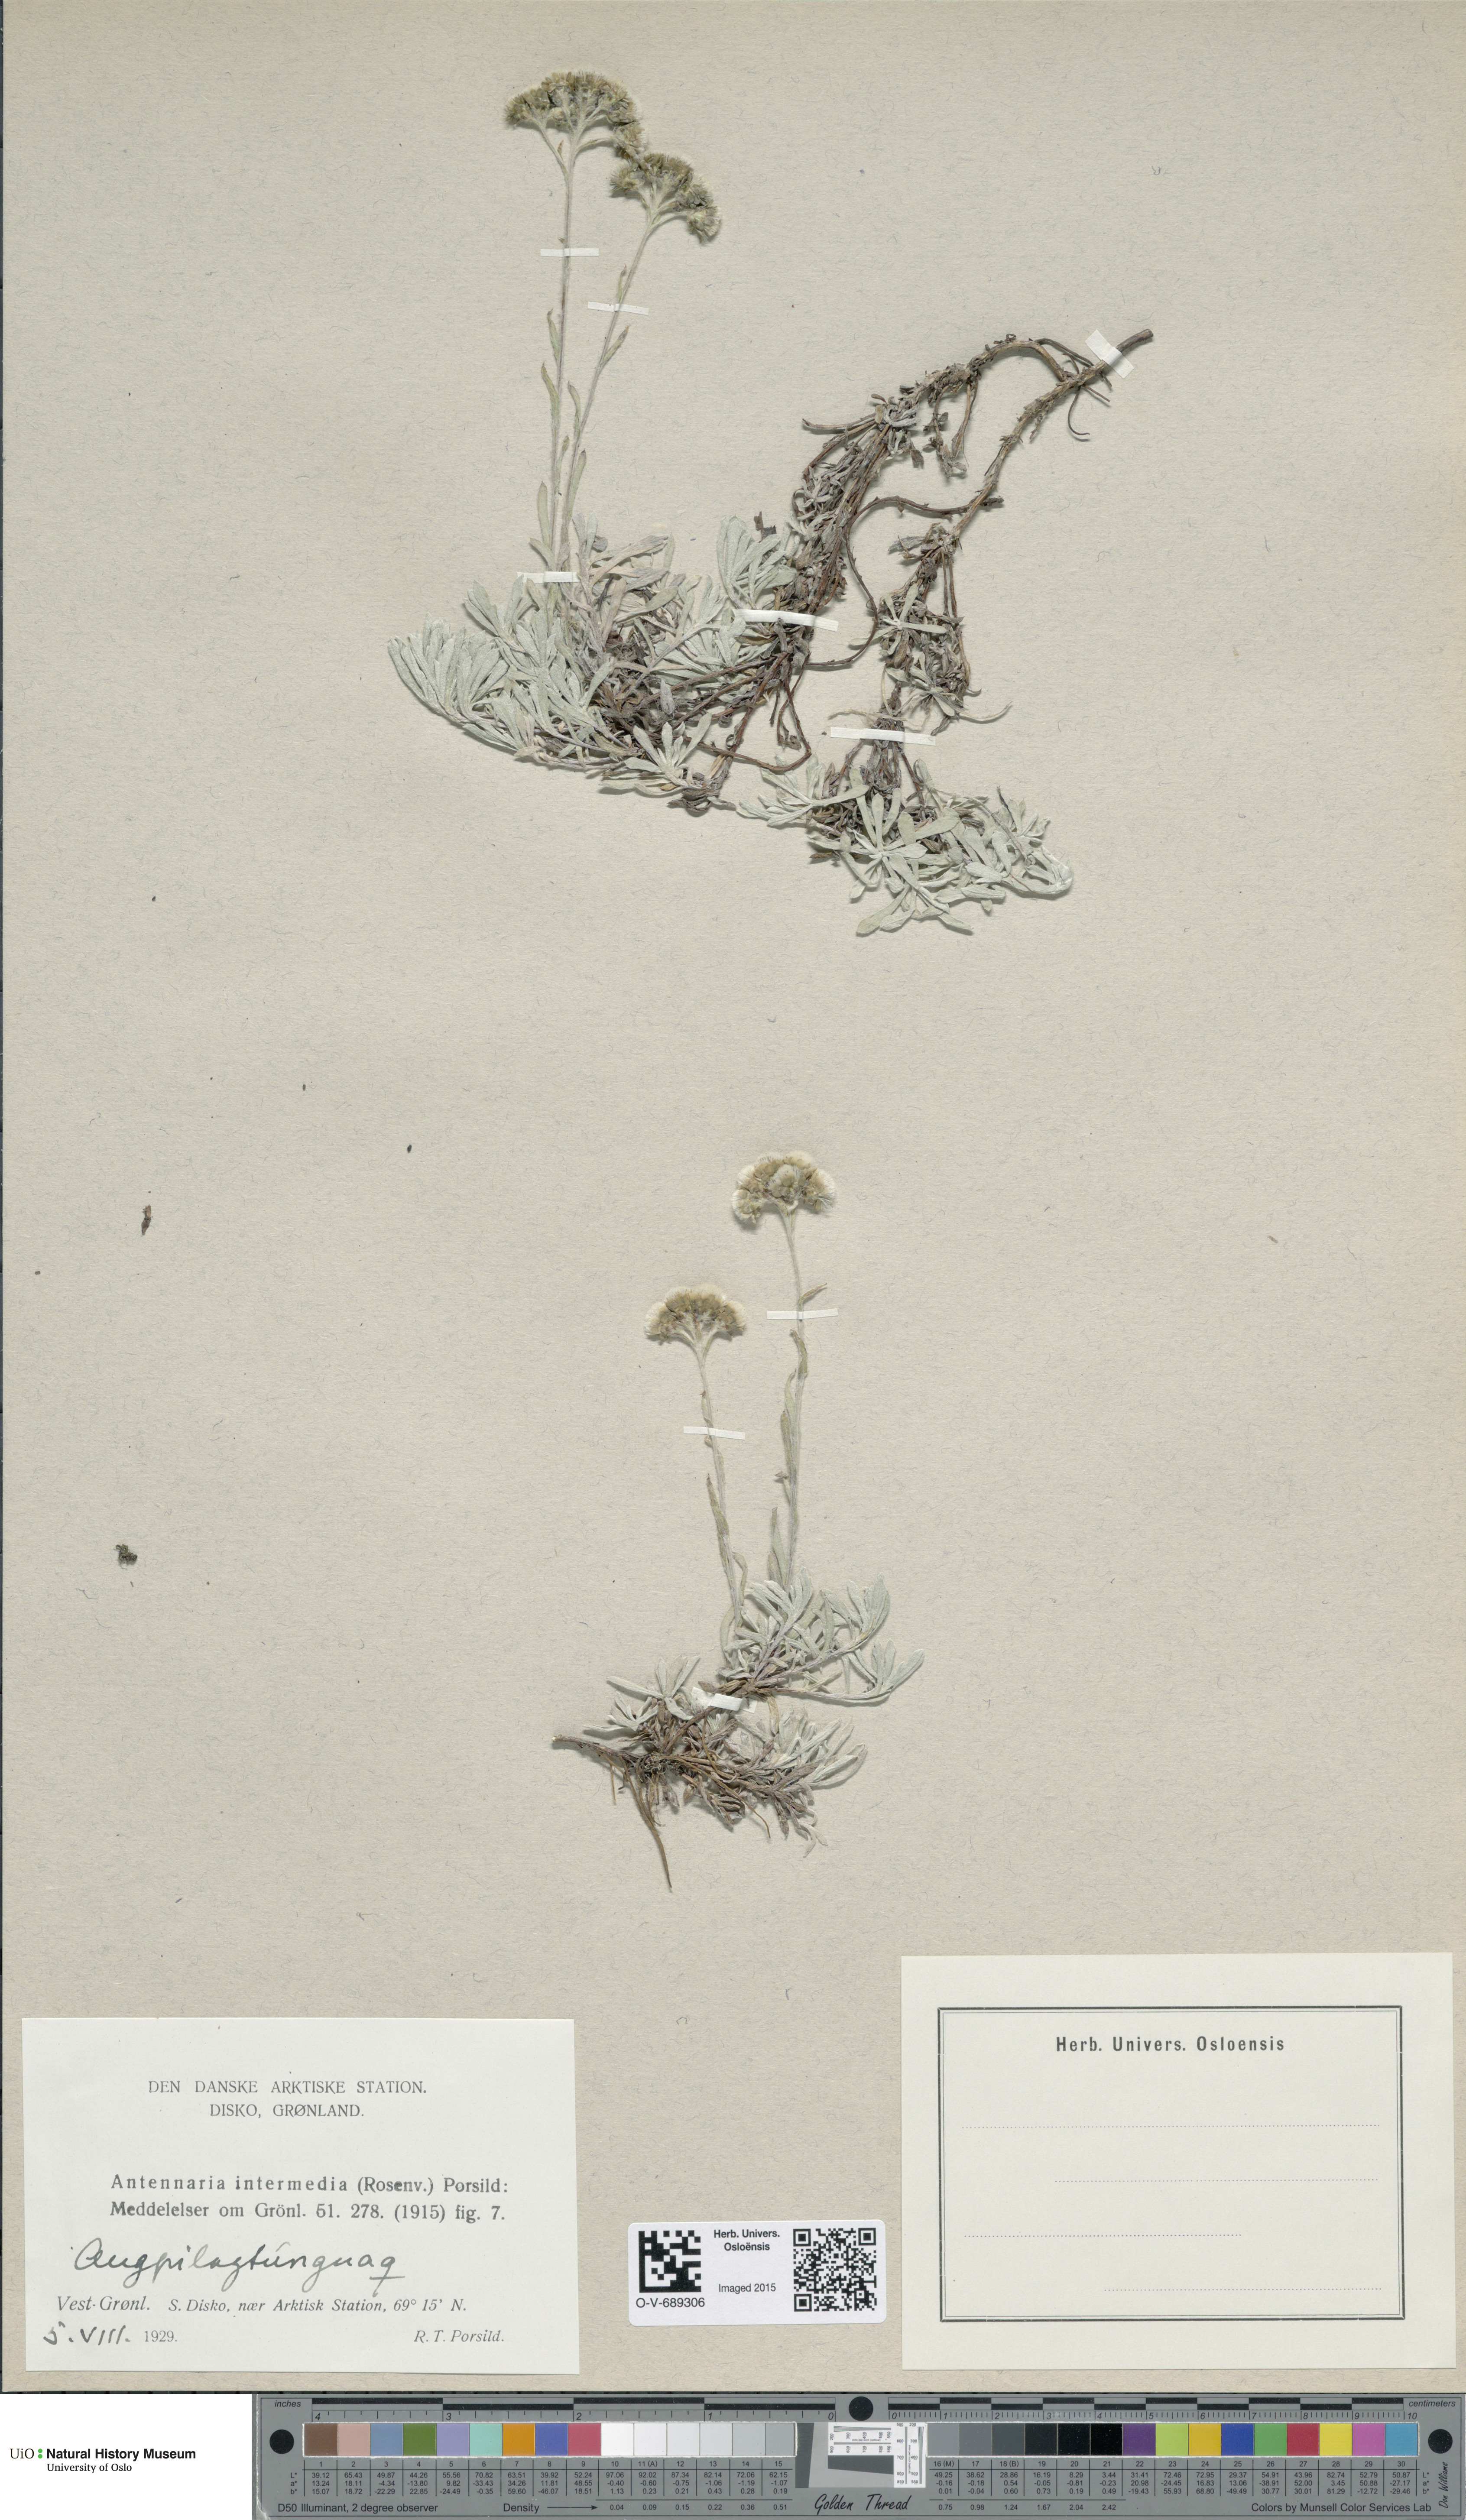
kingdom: Plantae
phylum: Tracheophyta
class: Magnoliopsida
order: Asterales
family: Asteraceae
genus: Antennaria
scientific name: Antennaria rosea
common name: Rosy pussytoes
